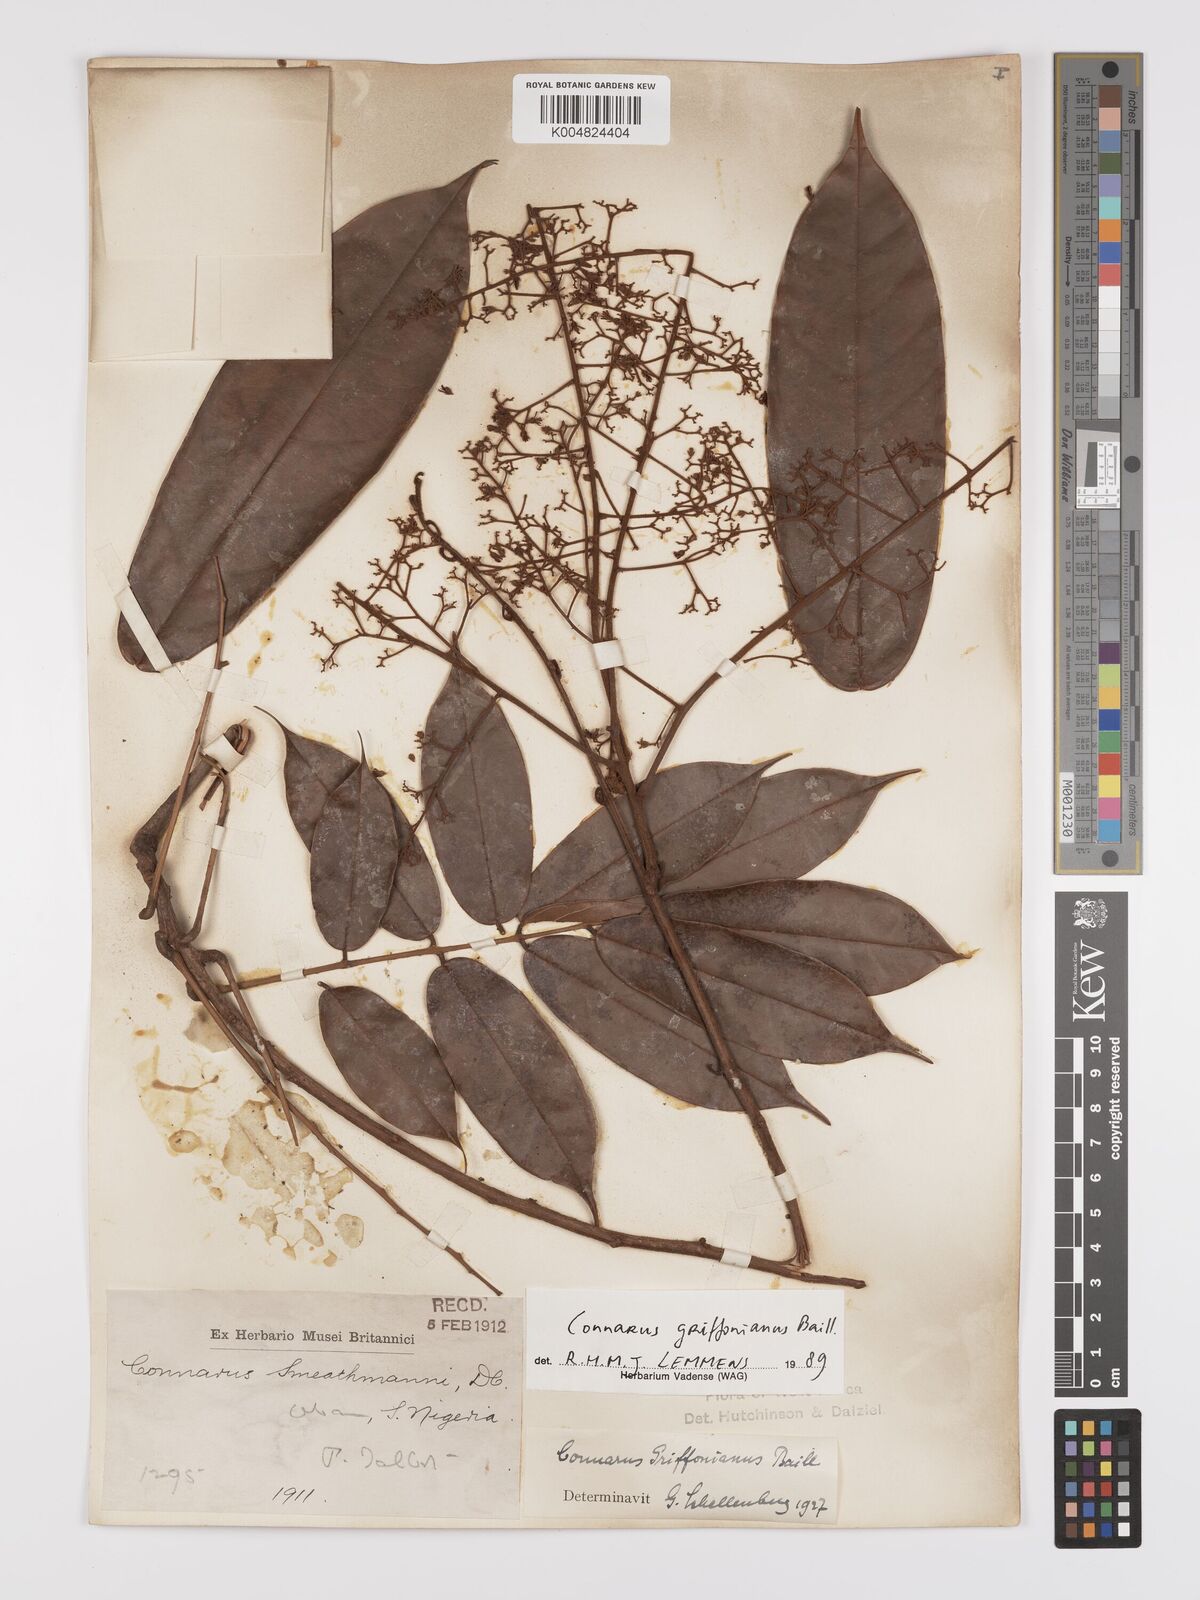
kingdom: Plantae
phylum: Tracheophyta
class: Magnoliopsida
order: Oxalidales
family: Connaraceae
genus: Connarus
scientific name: Connarus griffonianus
